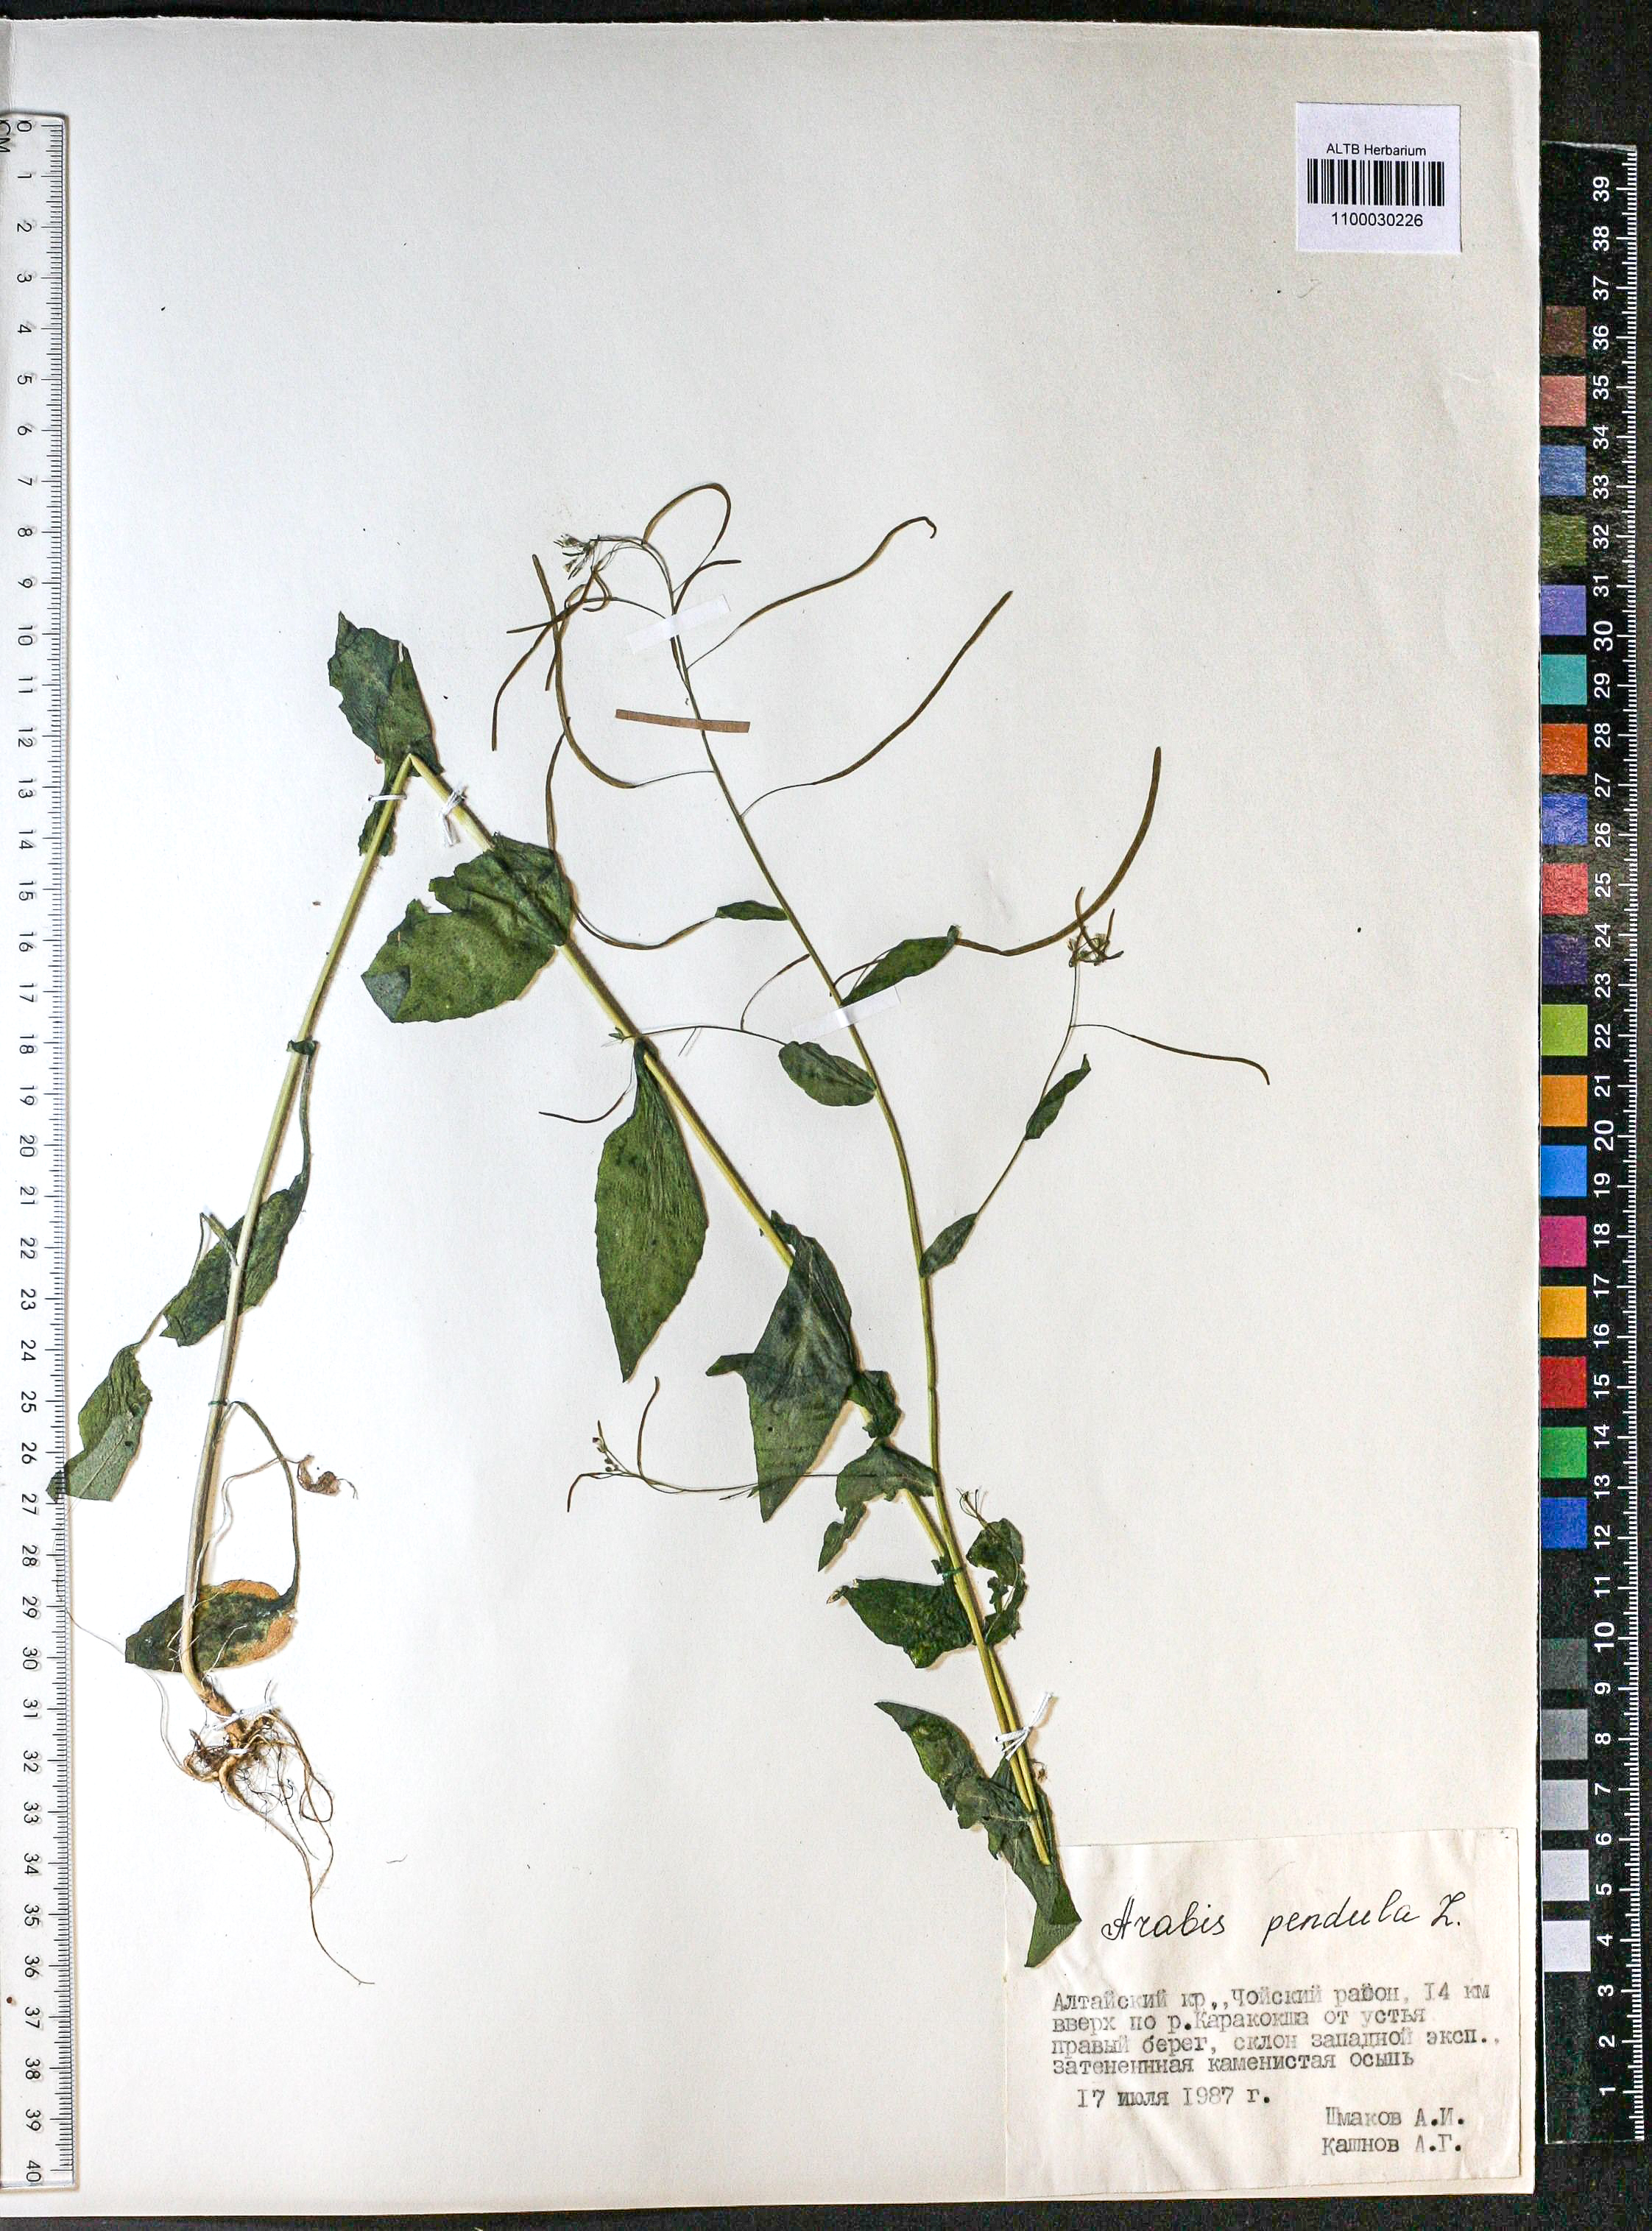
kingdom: Plantae
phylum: Tracheophyta
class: Magnoliopsida
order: Brassicales
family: Brassicaceae
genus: Catolobus
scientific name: Catolobus pendulus
